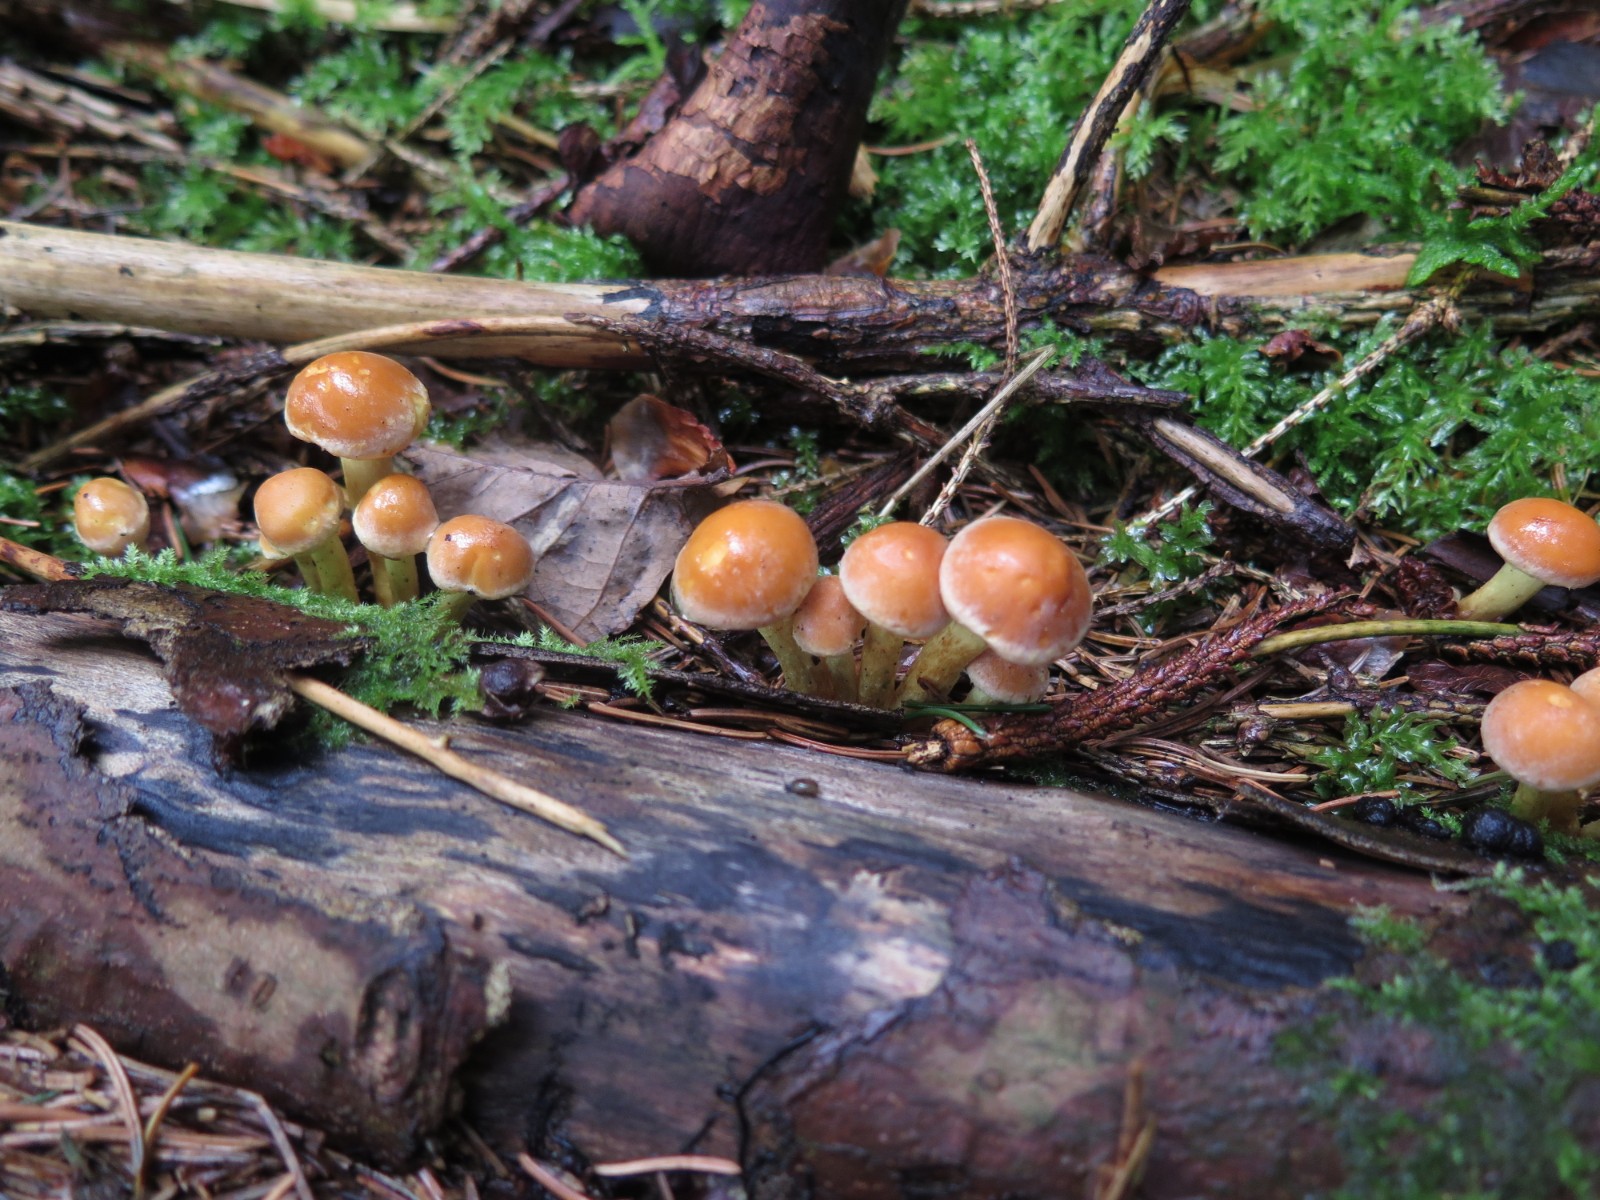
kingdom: Fungi
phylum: Basidiomycota
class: Agaricomycetes
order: Agaricales
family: Strophariaceae
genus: Hypholoma
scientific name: Hypholoma lateritium
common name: teglrød svovlhat
